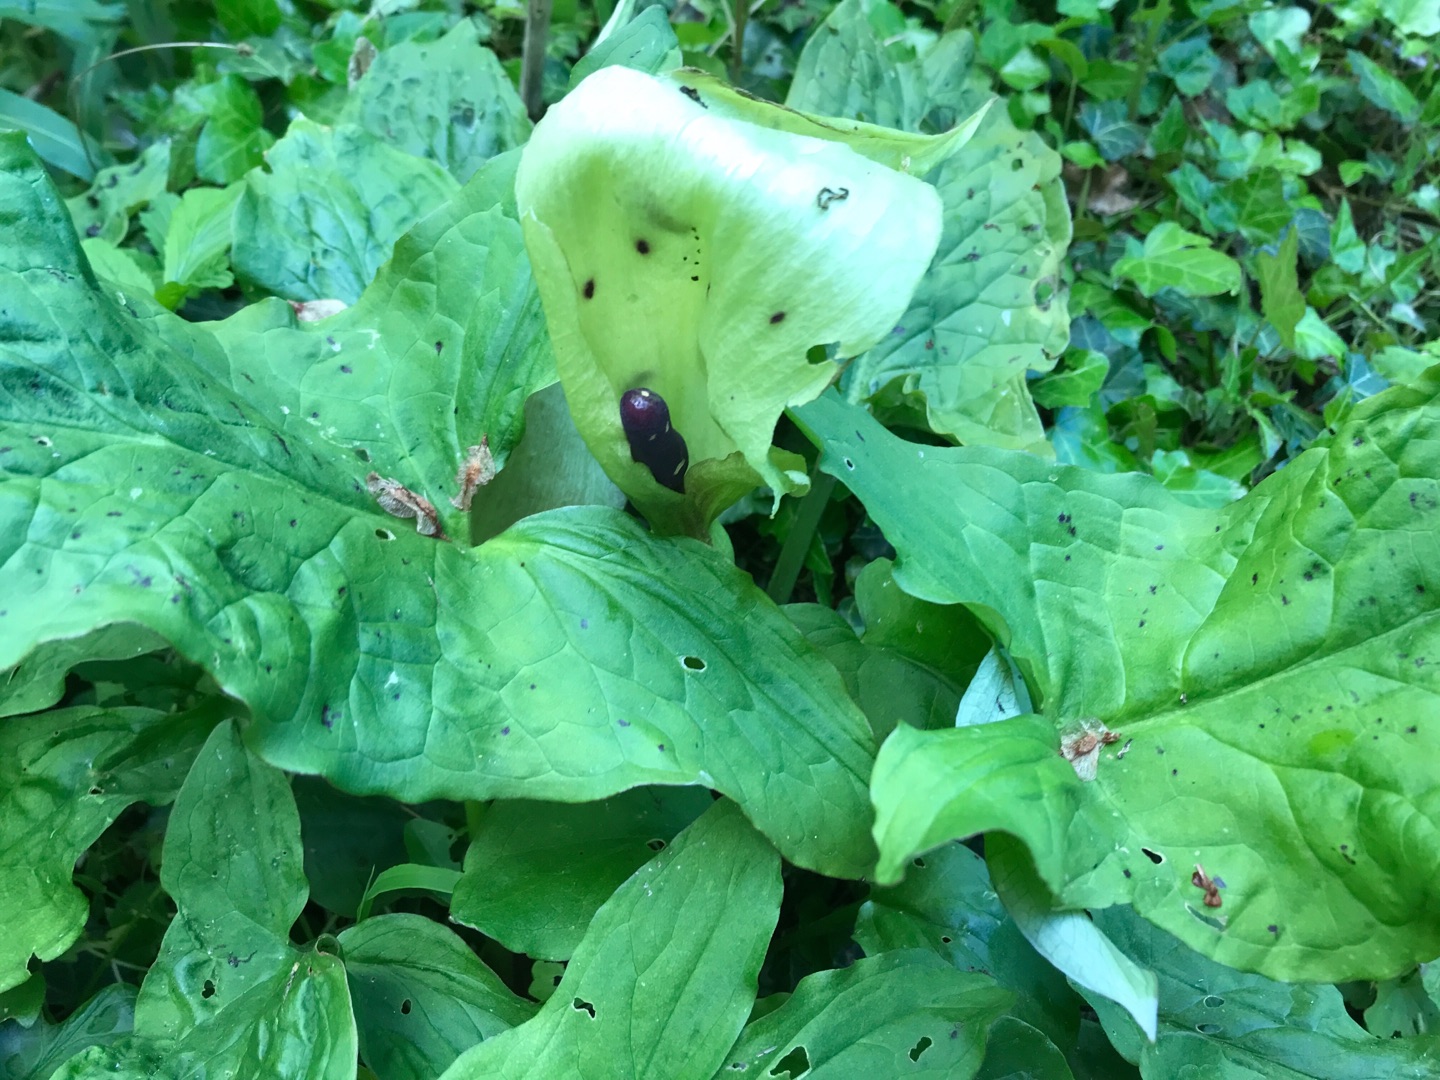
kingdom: Plantae
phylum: Tracheophyta
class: Liliopsida
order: Alismatales
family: Araceae
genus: Arum
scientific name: Arum maculatum
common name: Plettet arum
